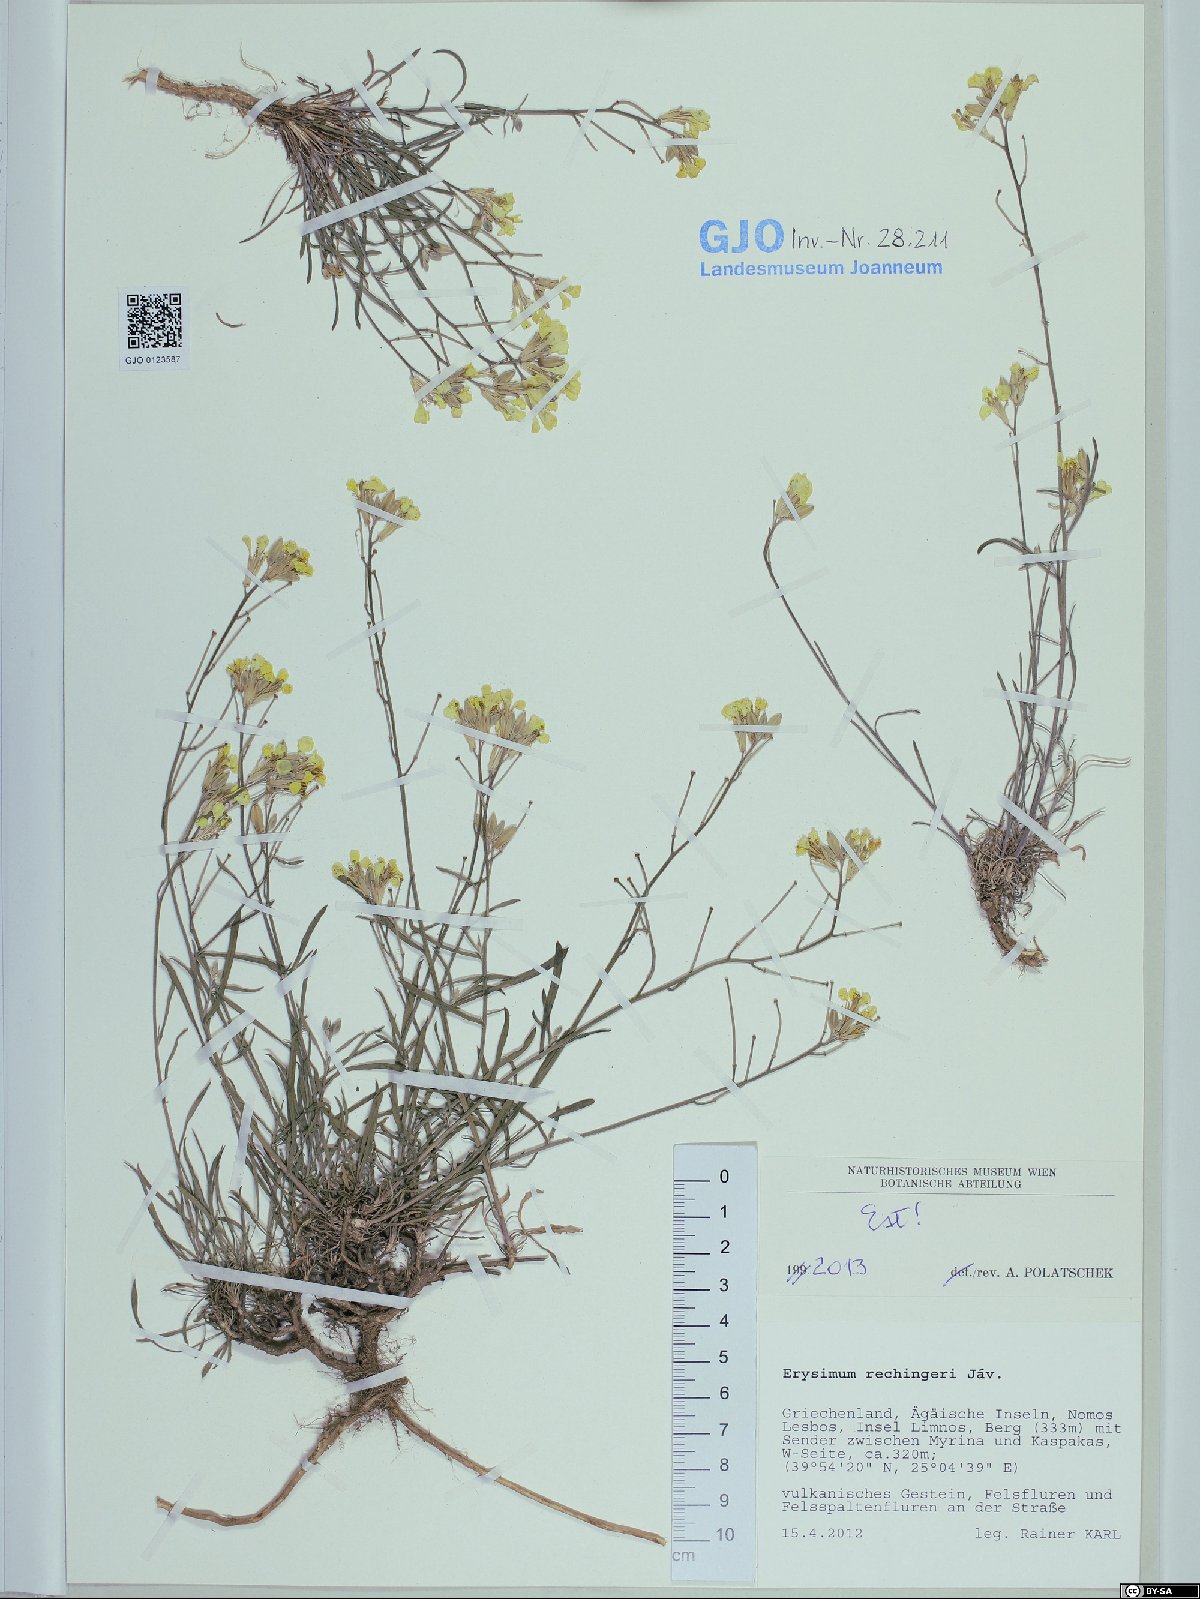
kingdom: Plantae
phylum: Tracheophyta
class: Magnoliopsida
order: Brassicales
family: Brassicaceae
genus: Erysimum
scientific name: Erysimum pusillum
